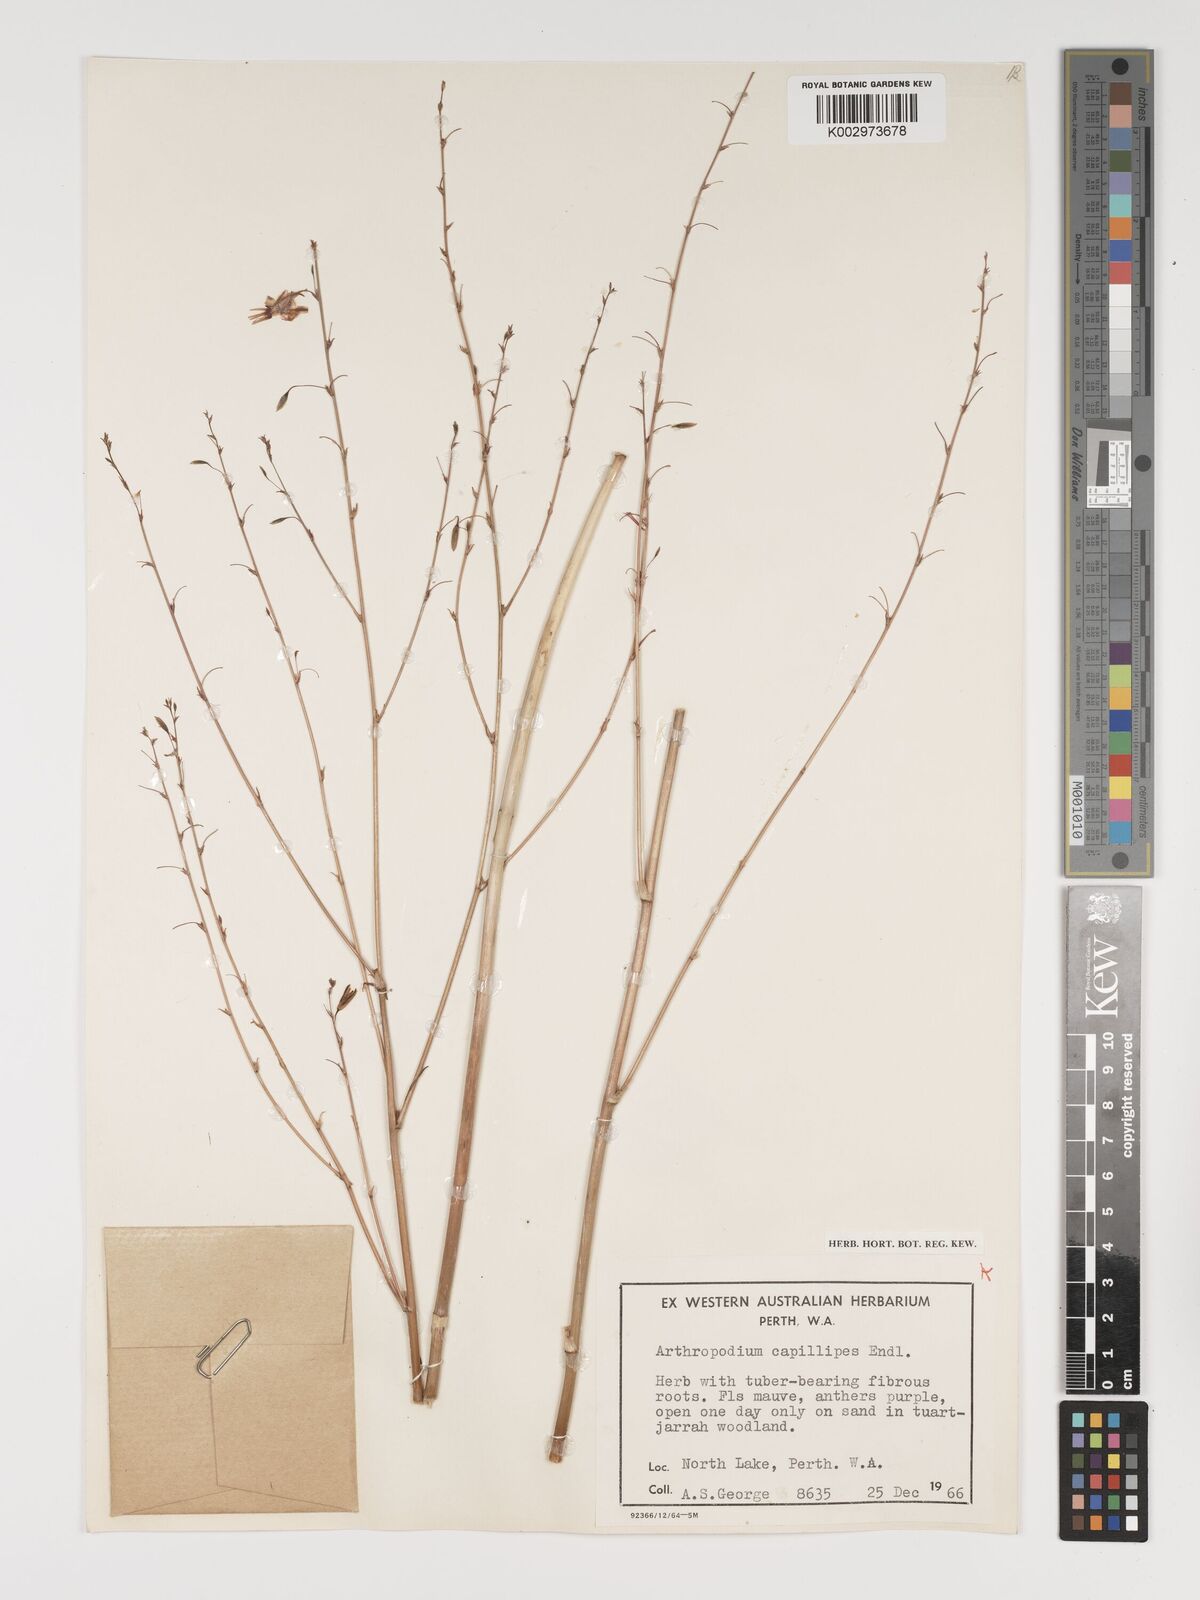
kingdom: Plantae
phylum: Tracheophyta
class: Liliopsida
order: Asparagales
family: Asparagaceae
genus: Dichopogon
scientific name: Dichopogon capillipes
